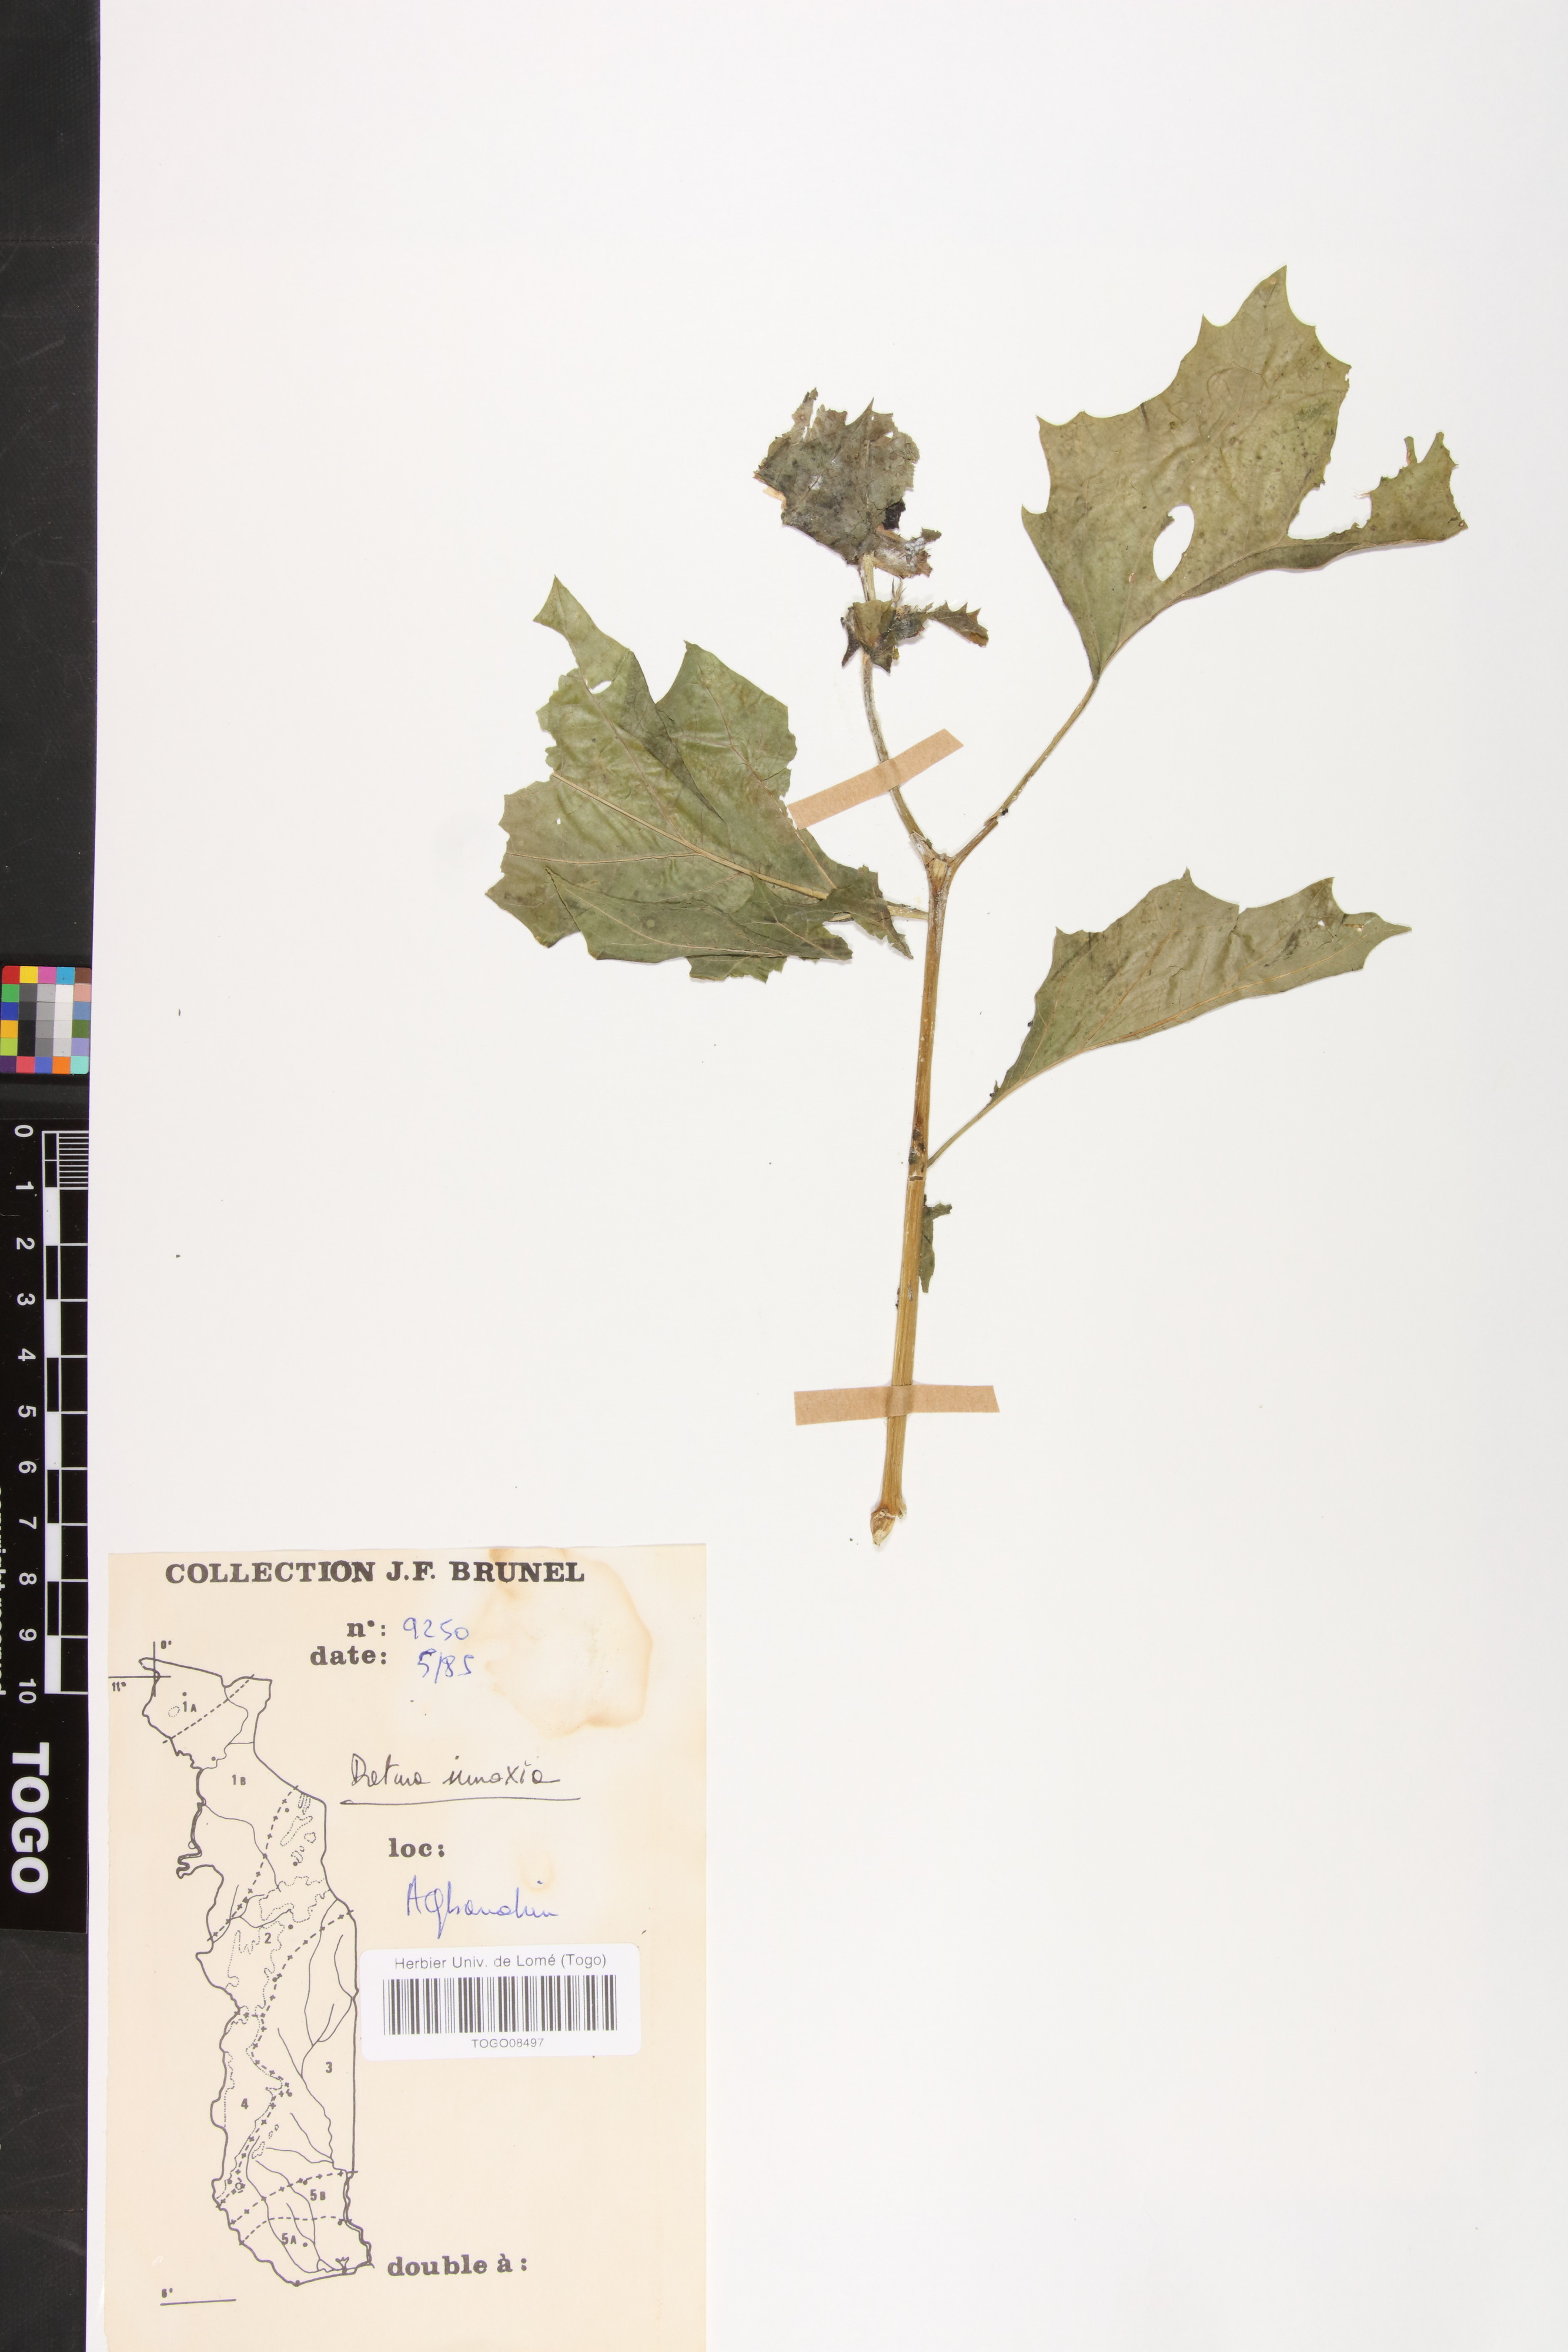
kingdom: Plantae
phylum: Tracheophyta
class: Magnoliopsida
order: Solanales
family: Solanaceae
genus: Datura
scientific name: Datura innoxia
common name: Downy thorn-apple
